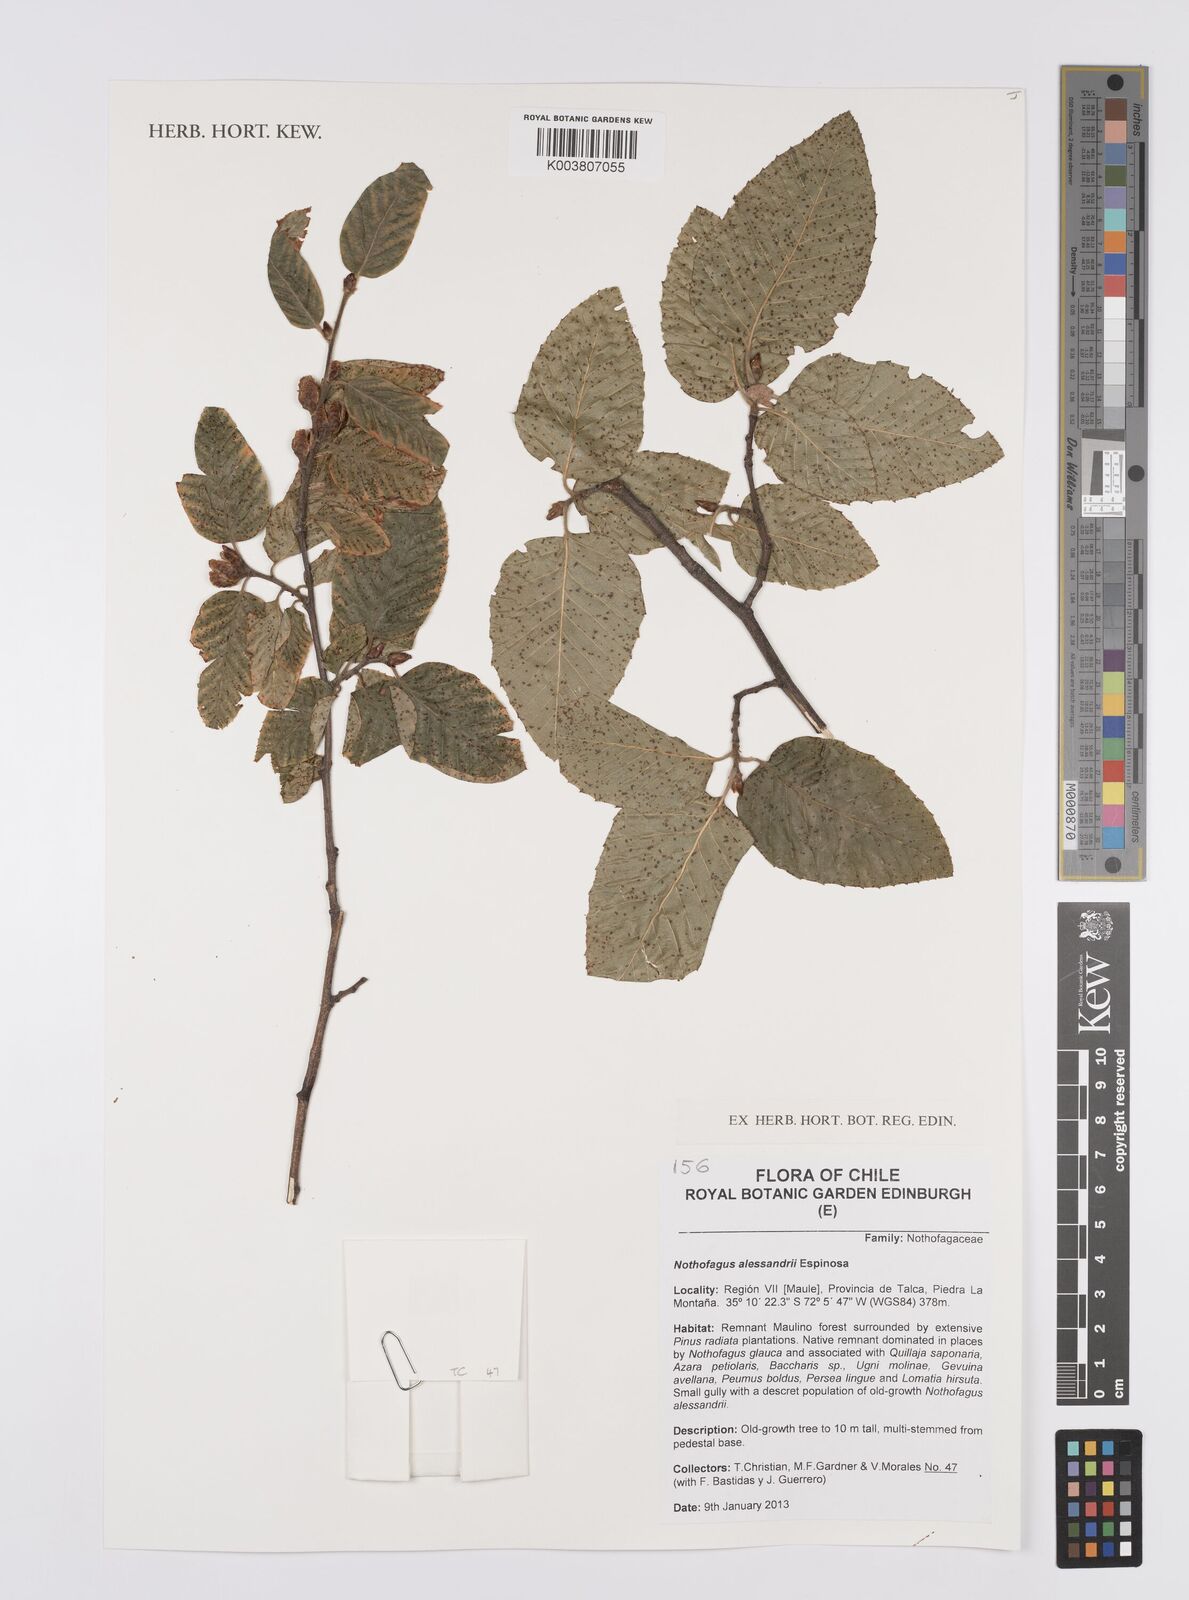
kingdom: Plantae
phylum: Tracheophyta
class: Magnoliopsida
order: Fagales
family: Nothofagaceae
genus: Nothofagus
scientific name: Nothofagus alessandrii
